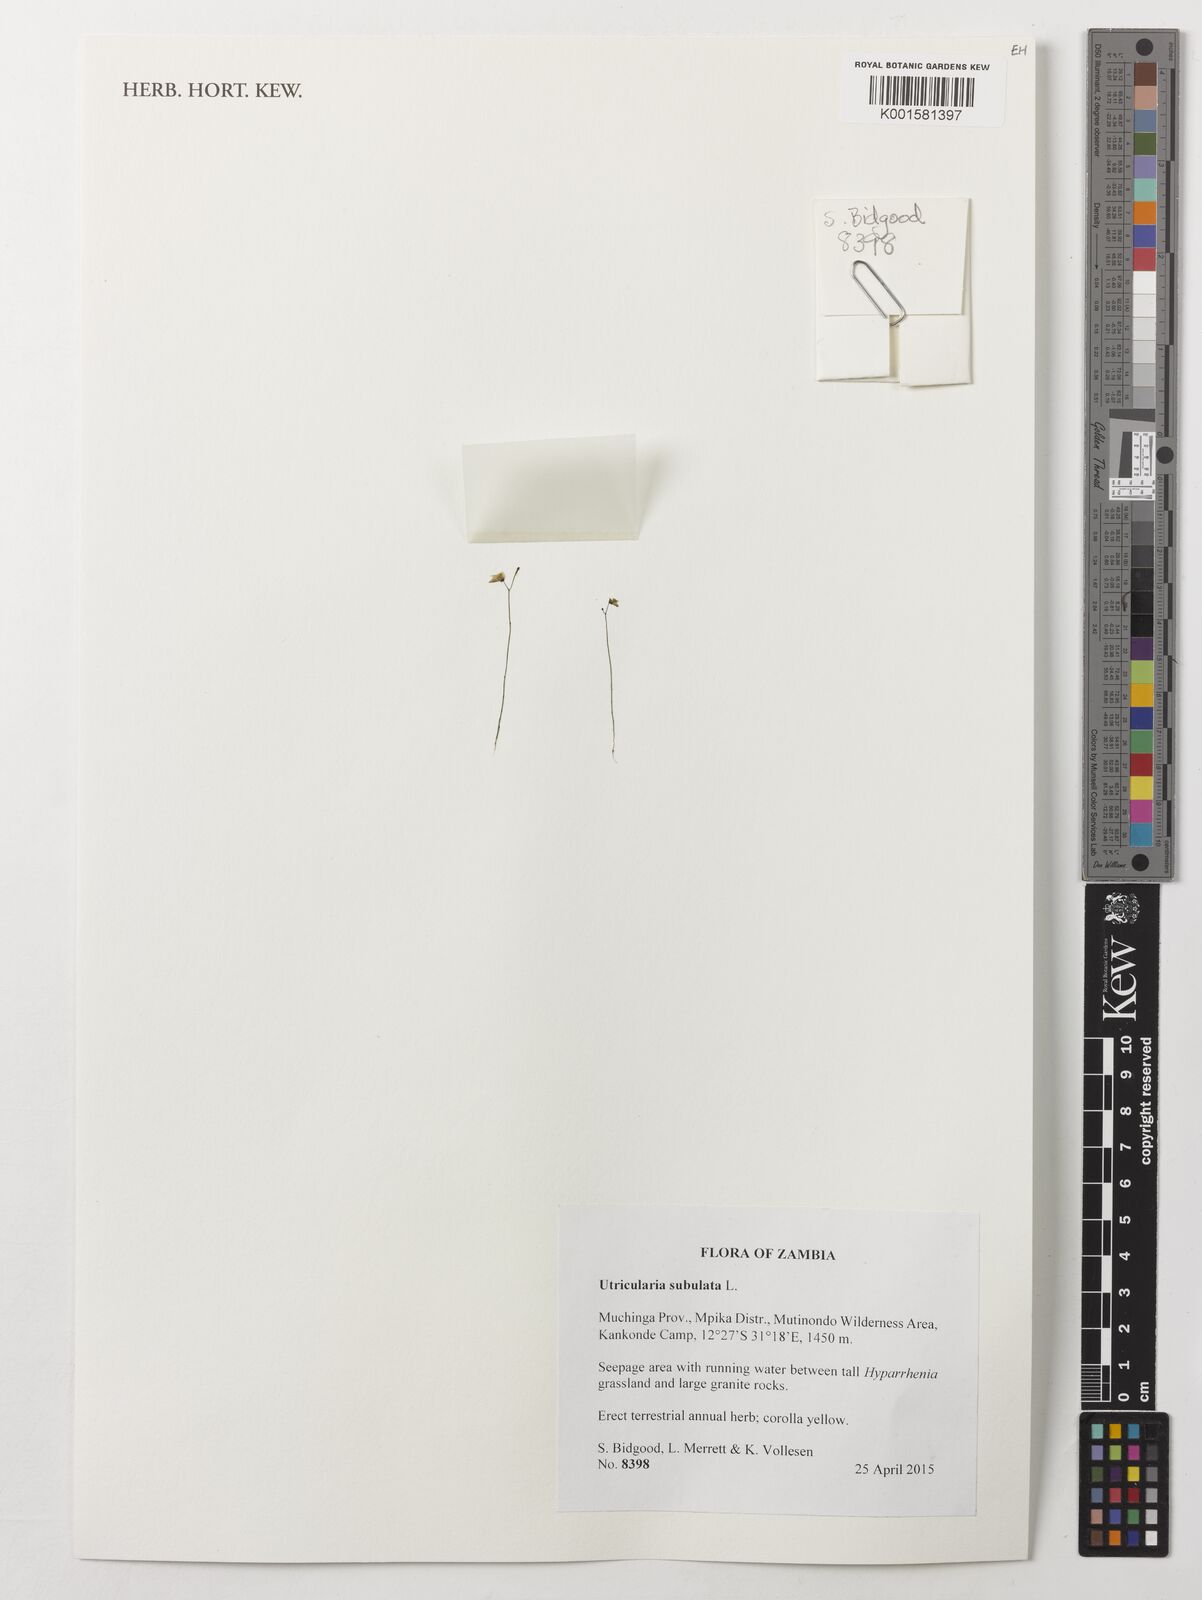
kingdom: Plantae
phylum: Tracheophyta
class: Magnoliopsida
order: Lamiales
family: Lentibulariaceae
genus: Utricularia
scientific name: Utricularia subulata
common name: Tiny bladderwort
